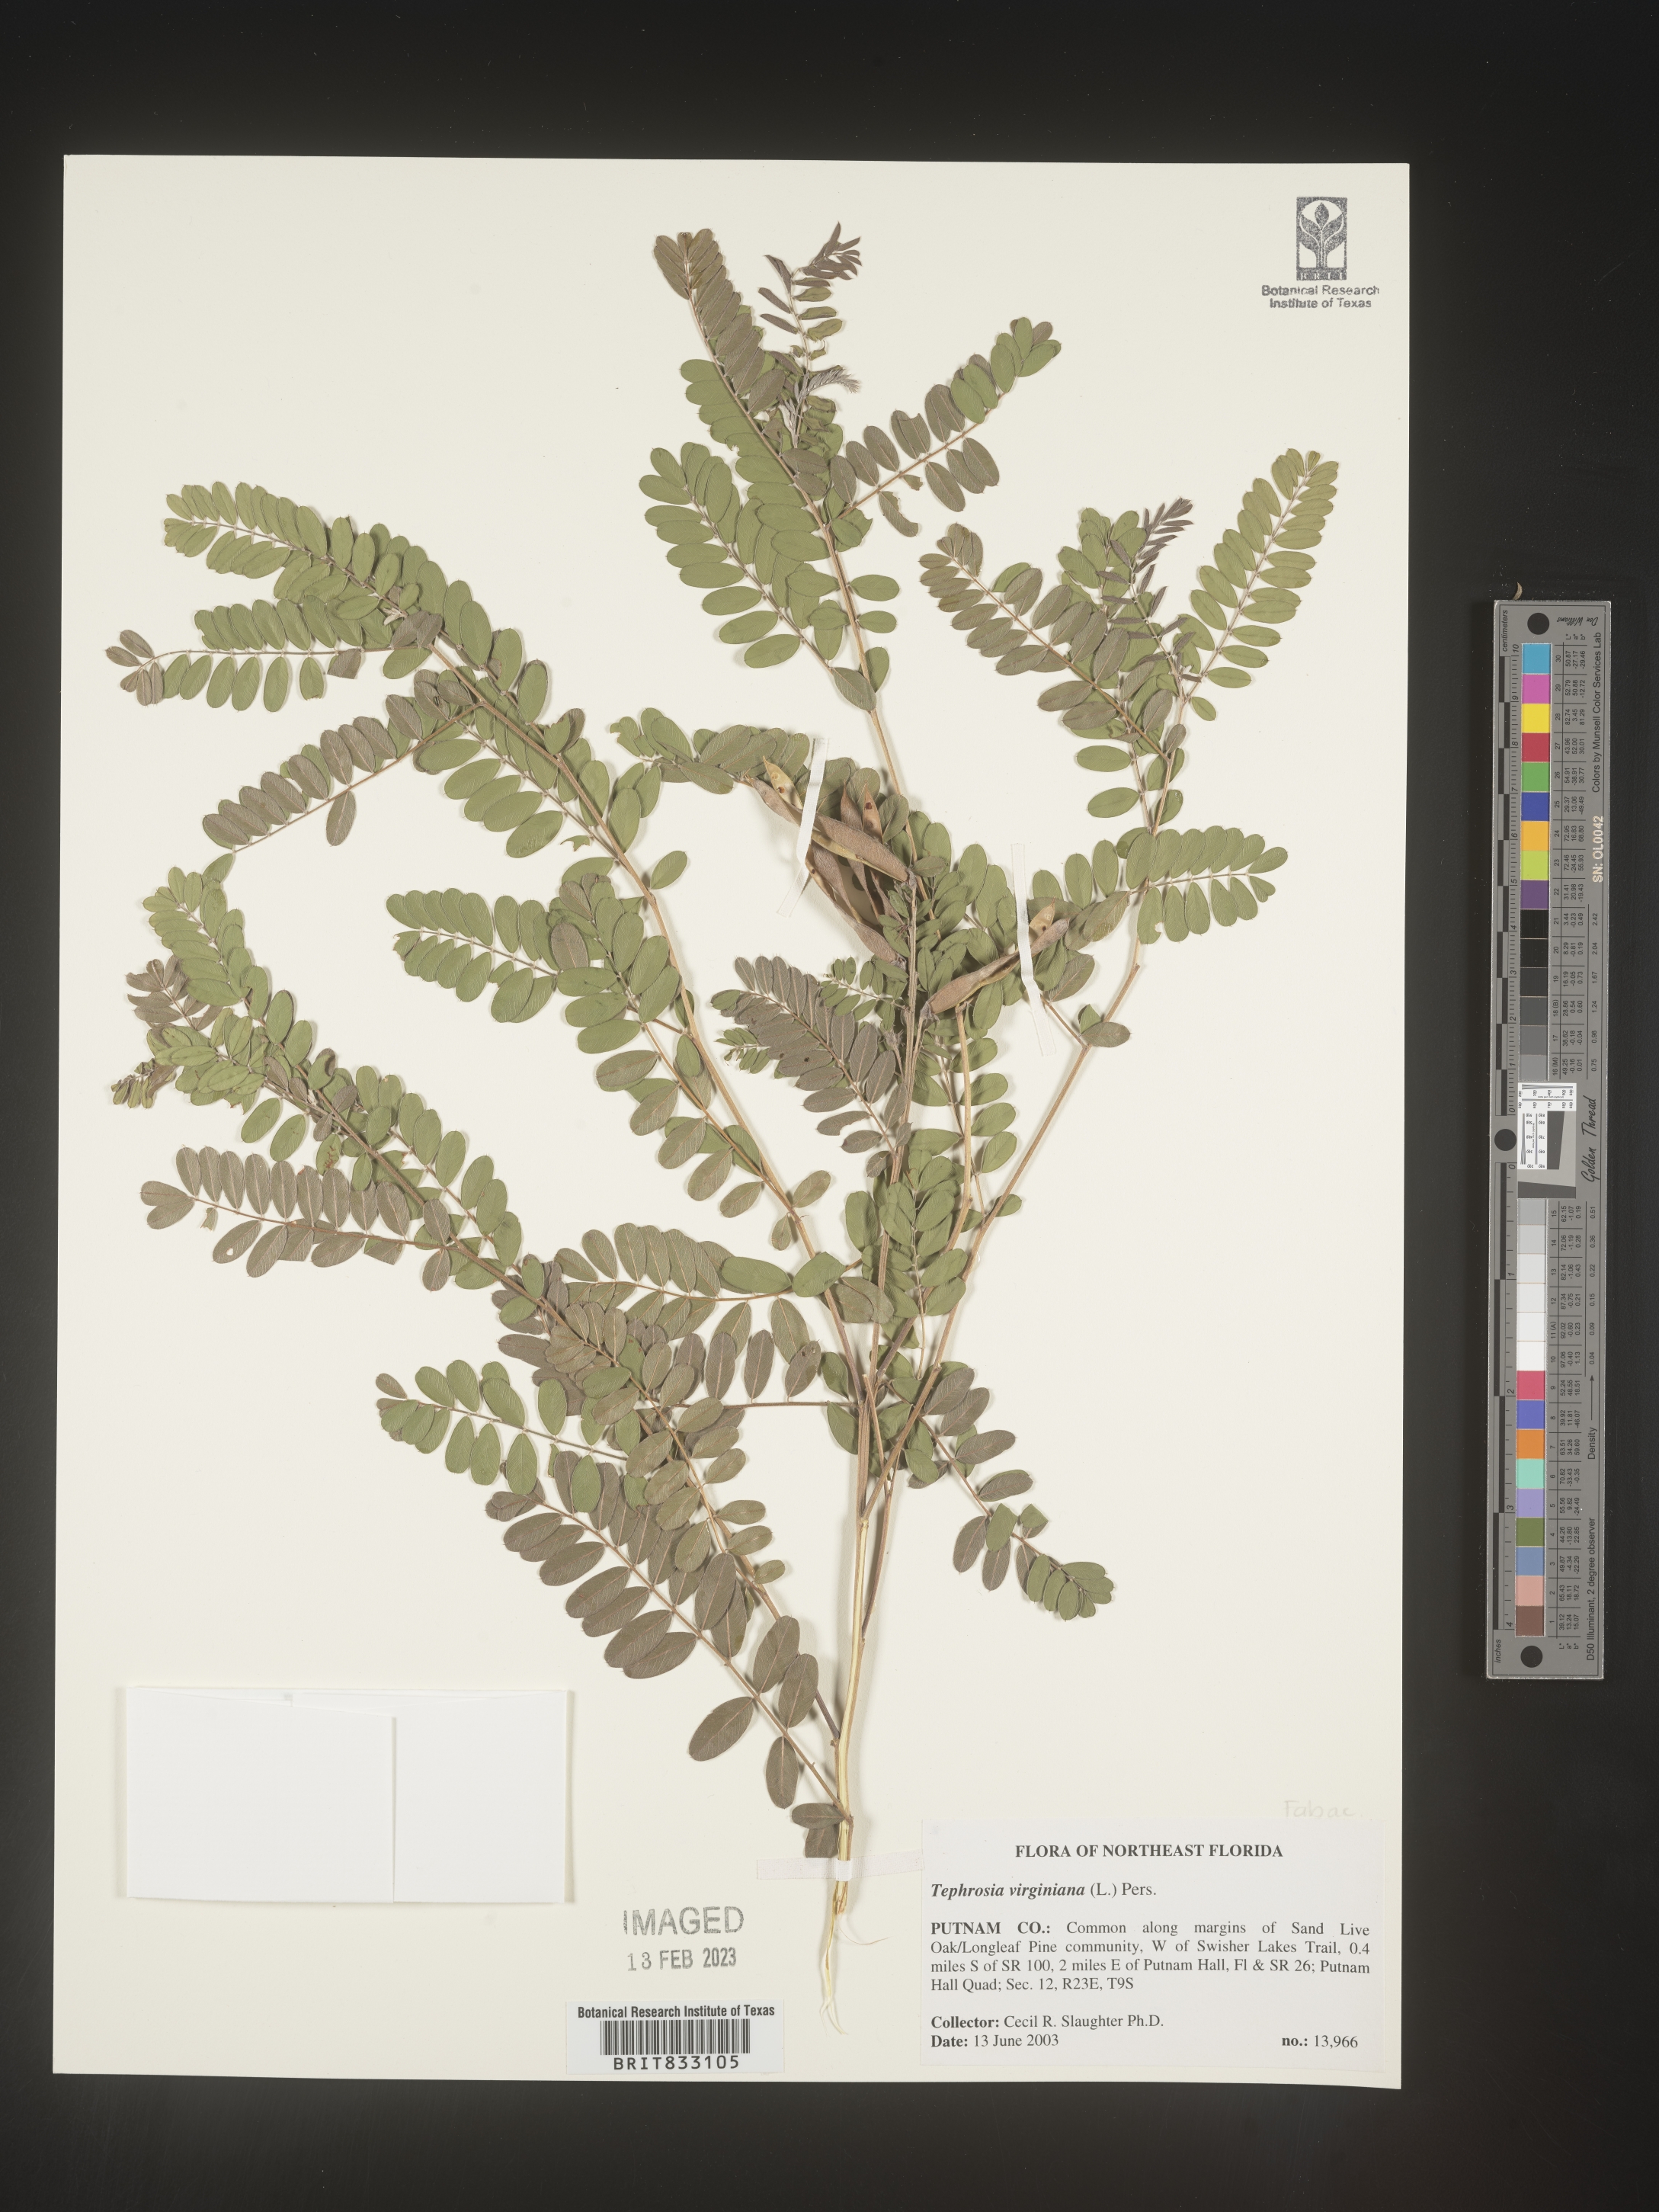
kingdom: Plantae
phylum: Tracheophyta
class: Magnoliopsida
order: Fabales
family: Fabaceae
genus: Tephrosia
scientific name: Tephrosia virginiana
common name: Rabbit-pea
